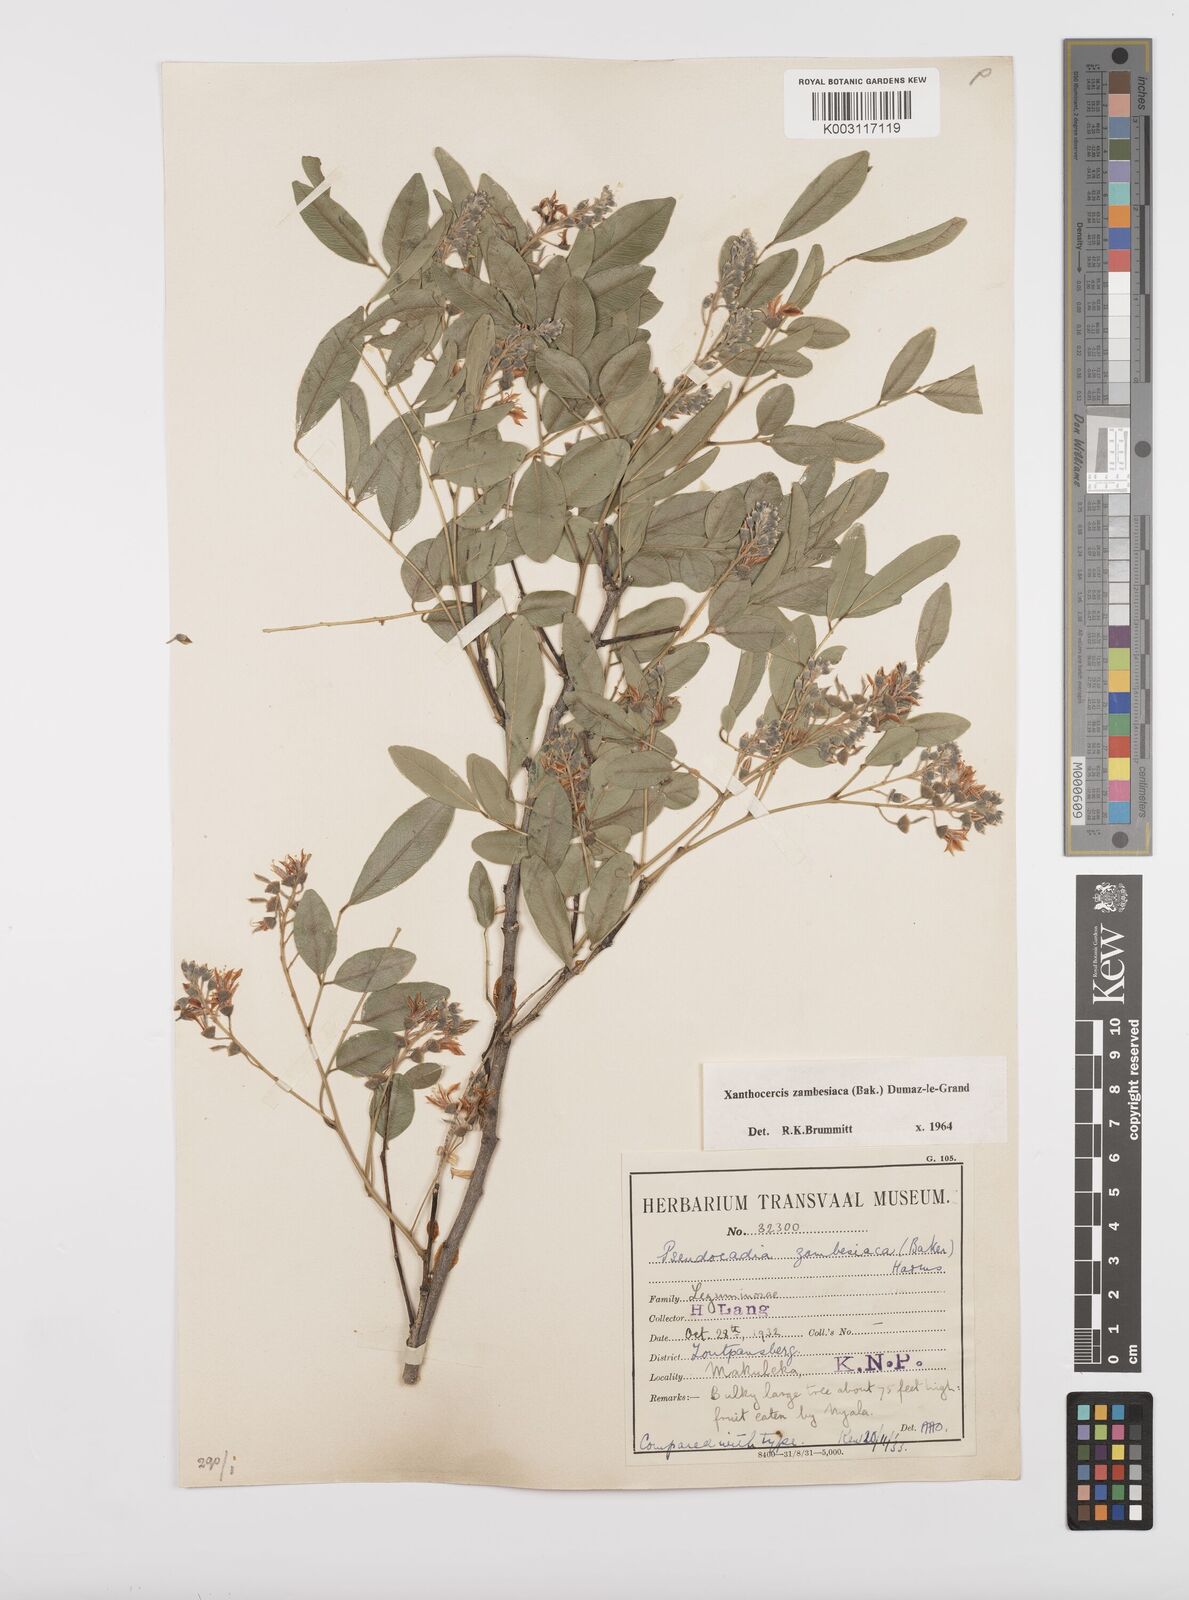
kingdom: Plantae
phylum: Tracheophyta
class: Magnoliopsida
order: Fabales
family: Fabaceae
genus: Xanthocercis
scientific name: Xanthocercis zambesiaca
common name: Nyala-tree
